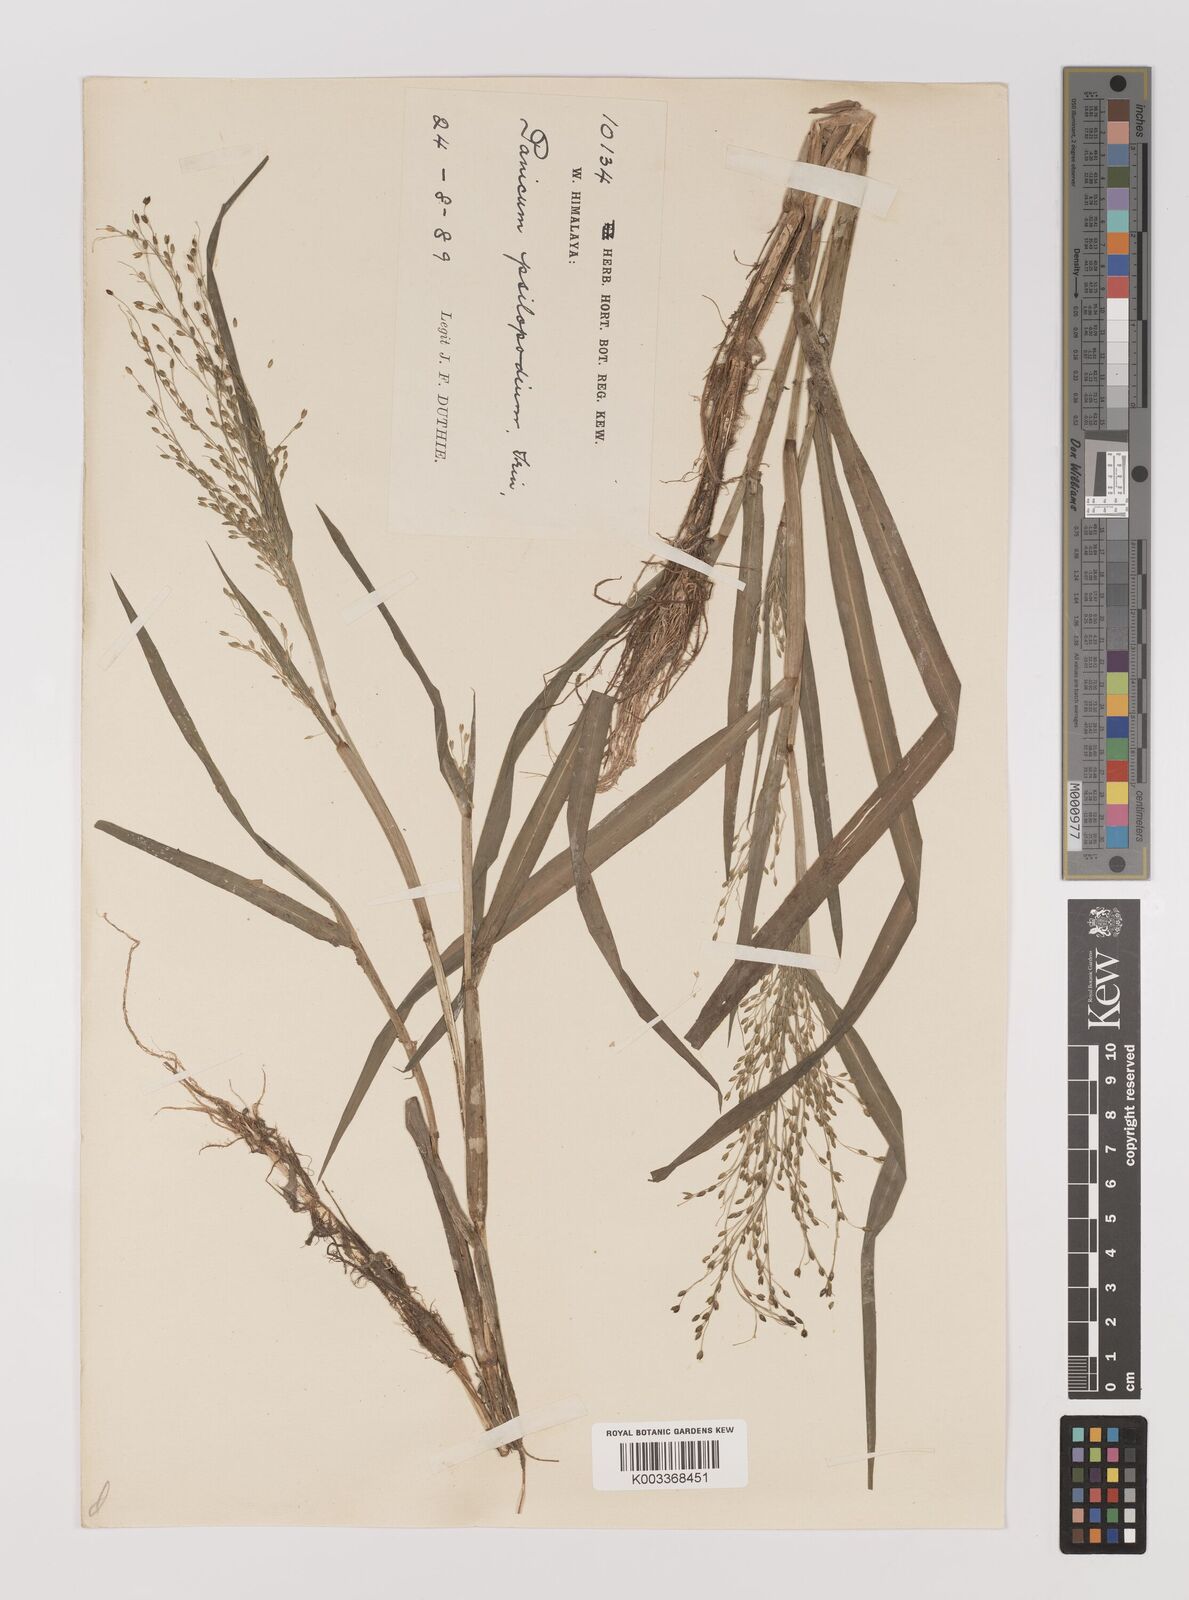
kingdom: Plantae
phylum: Tracheophyta
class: Liliopsida
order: Poales
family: Poaceae
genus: Panicum
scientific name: Panicum sumatrense
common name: Little millet
